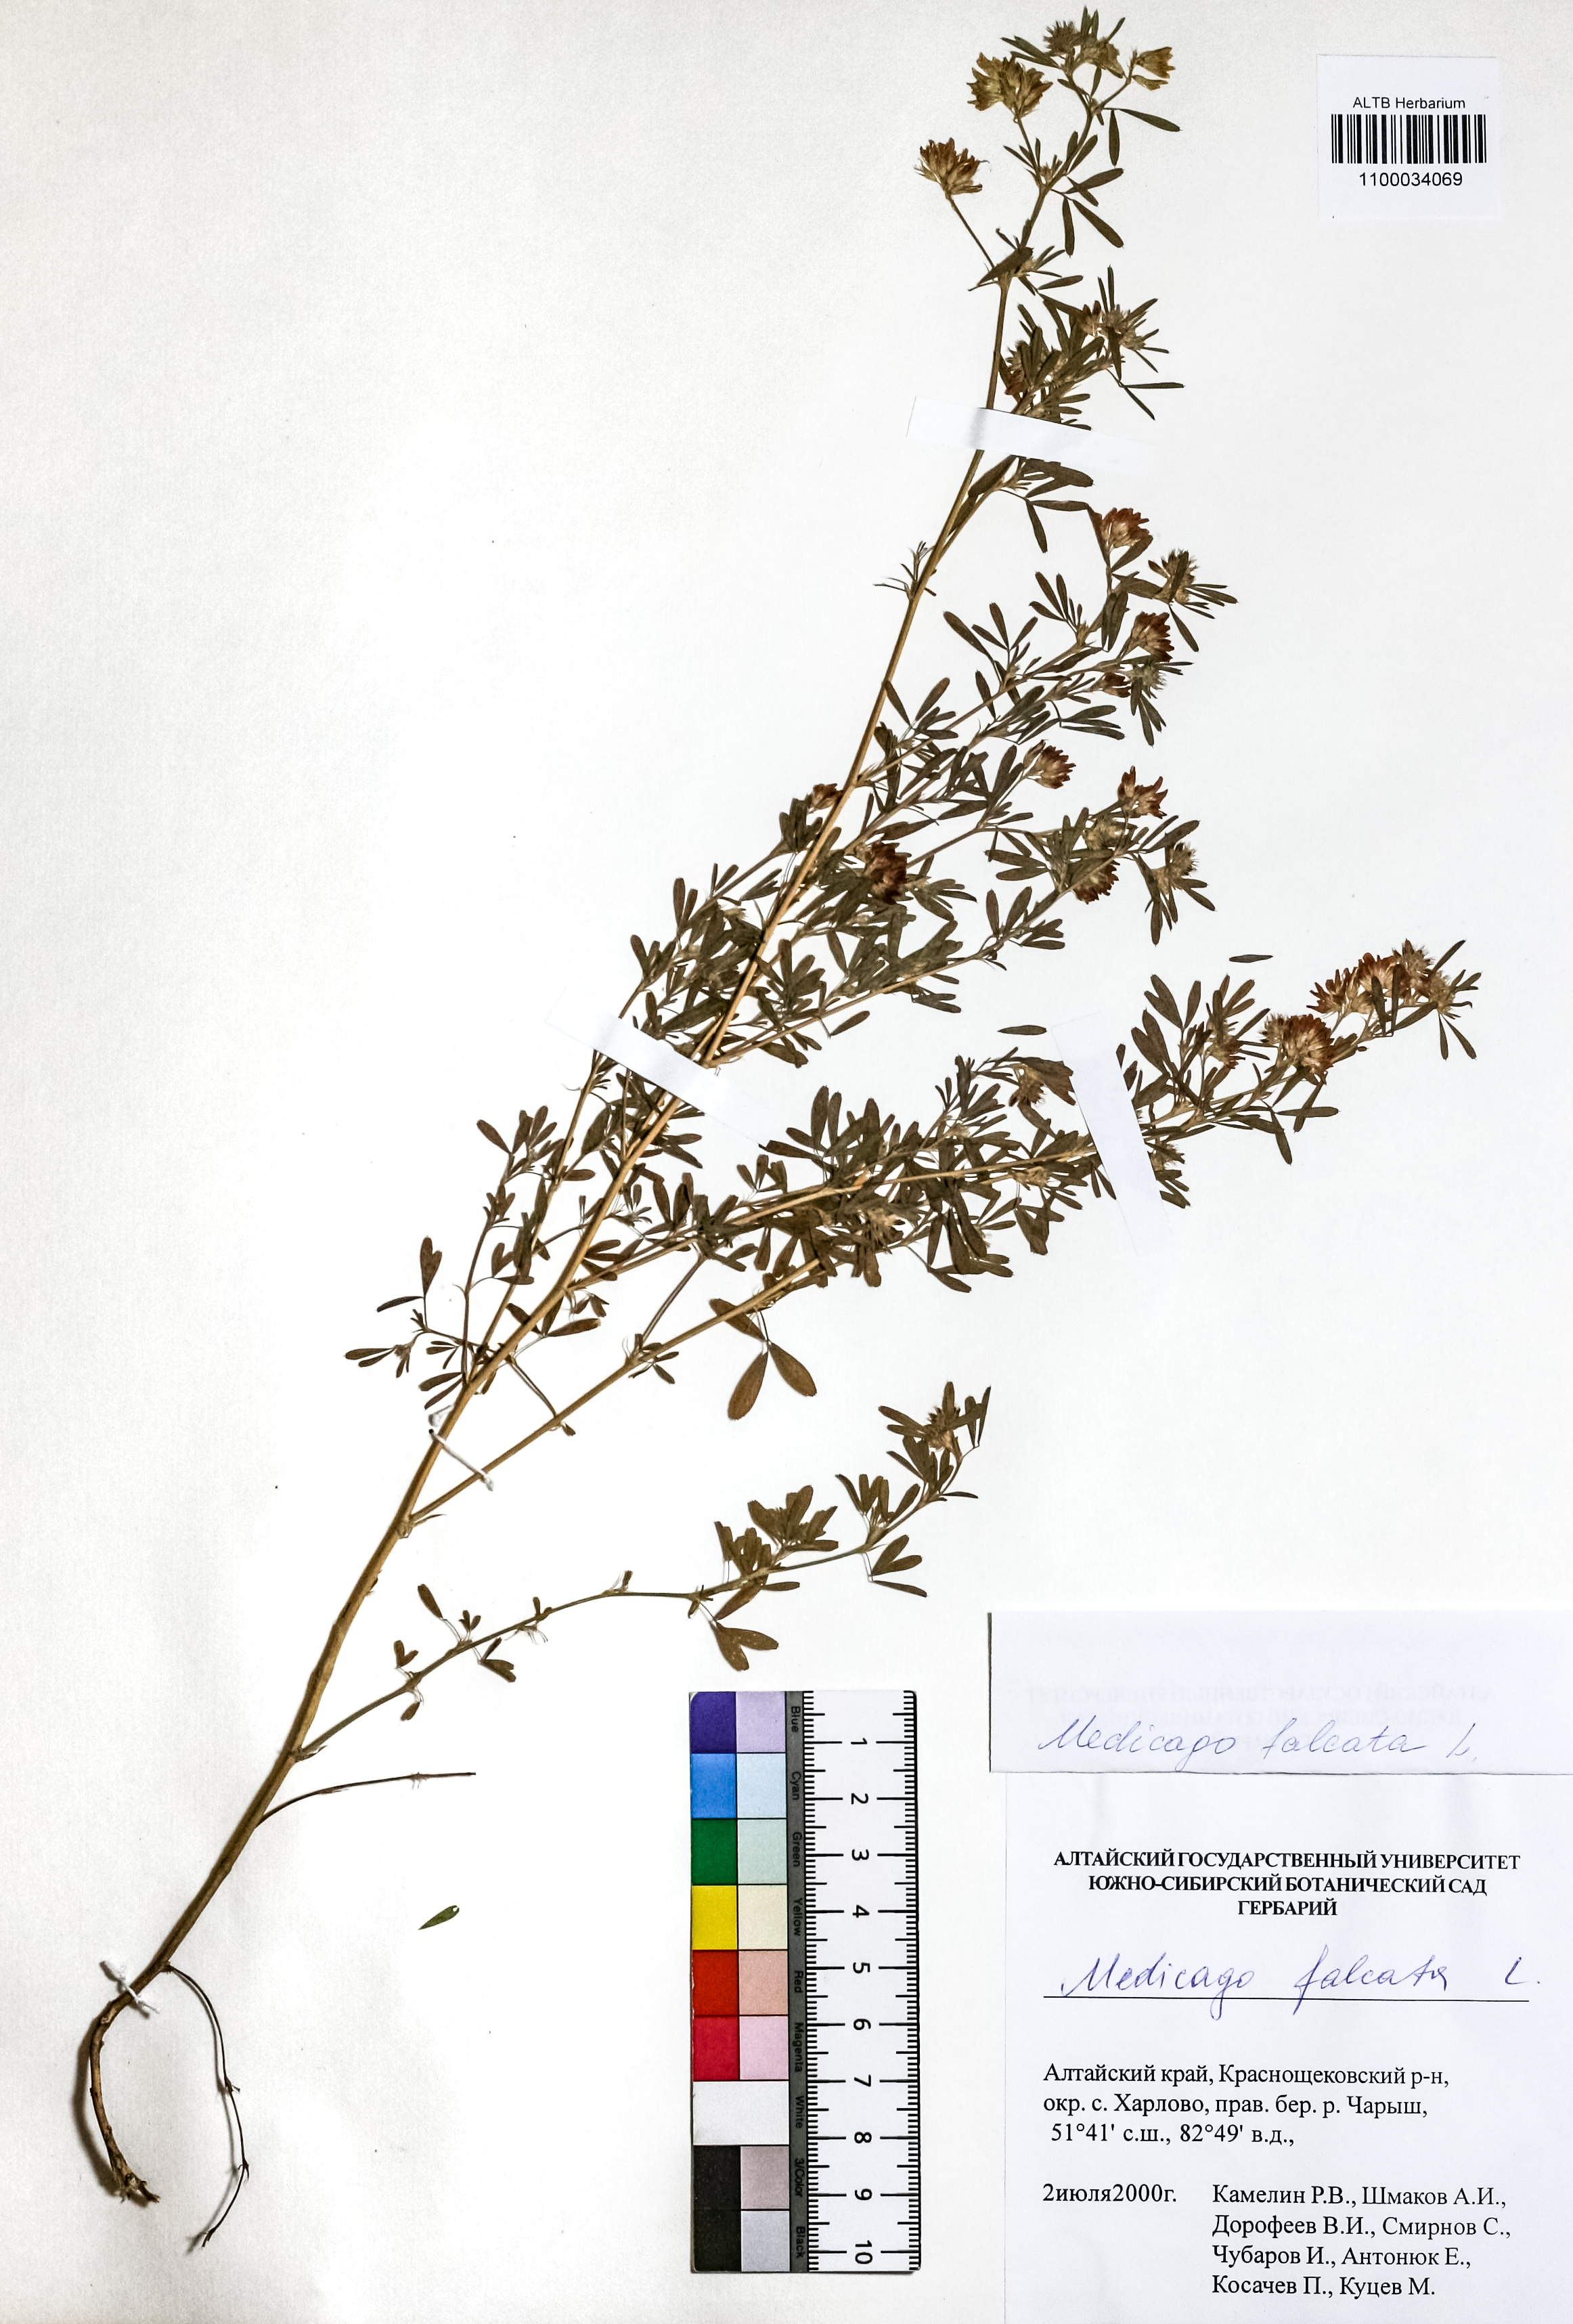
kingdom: Plantae
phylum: Tracheophyta
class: Magnoliopsida
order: Fabales
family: Fabaceae
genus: Medicago
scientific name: Medicago falcata
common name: Sickle medick
